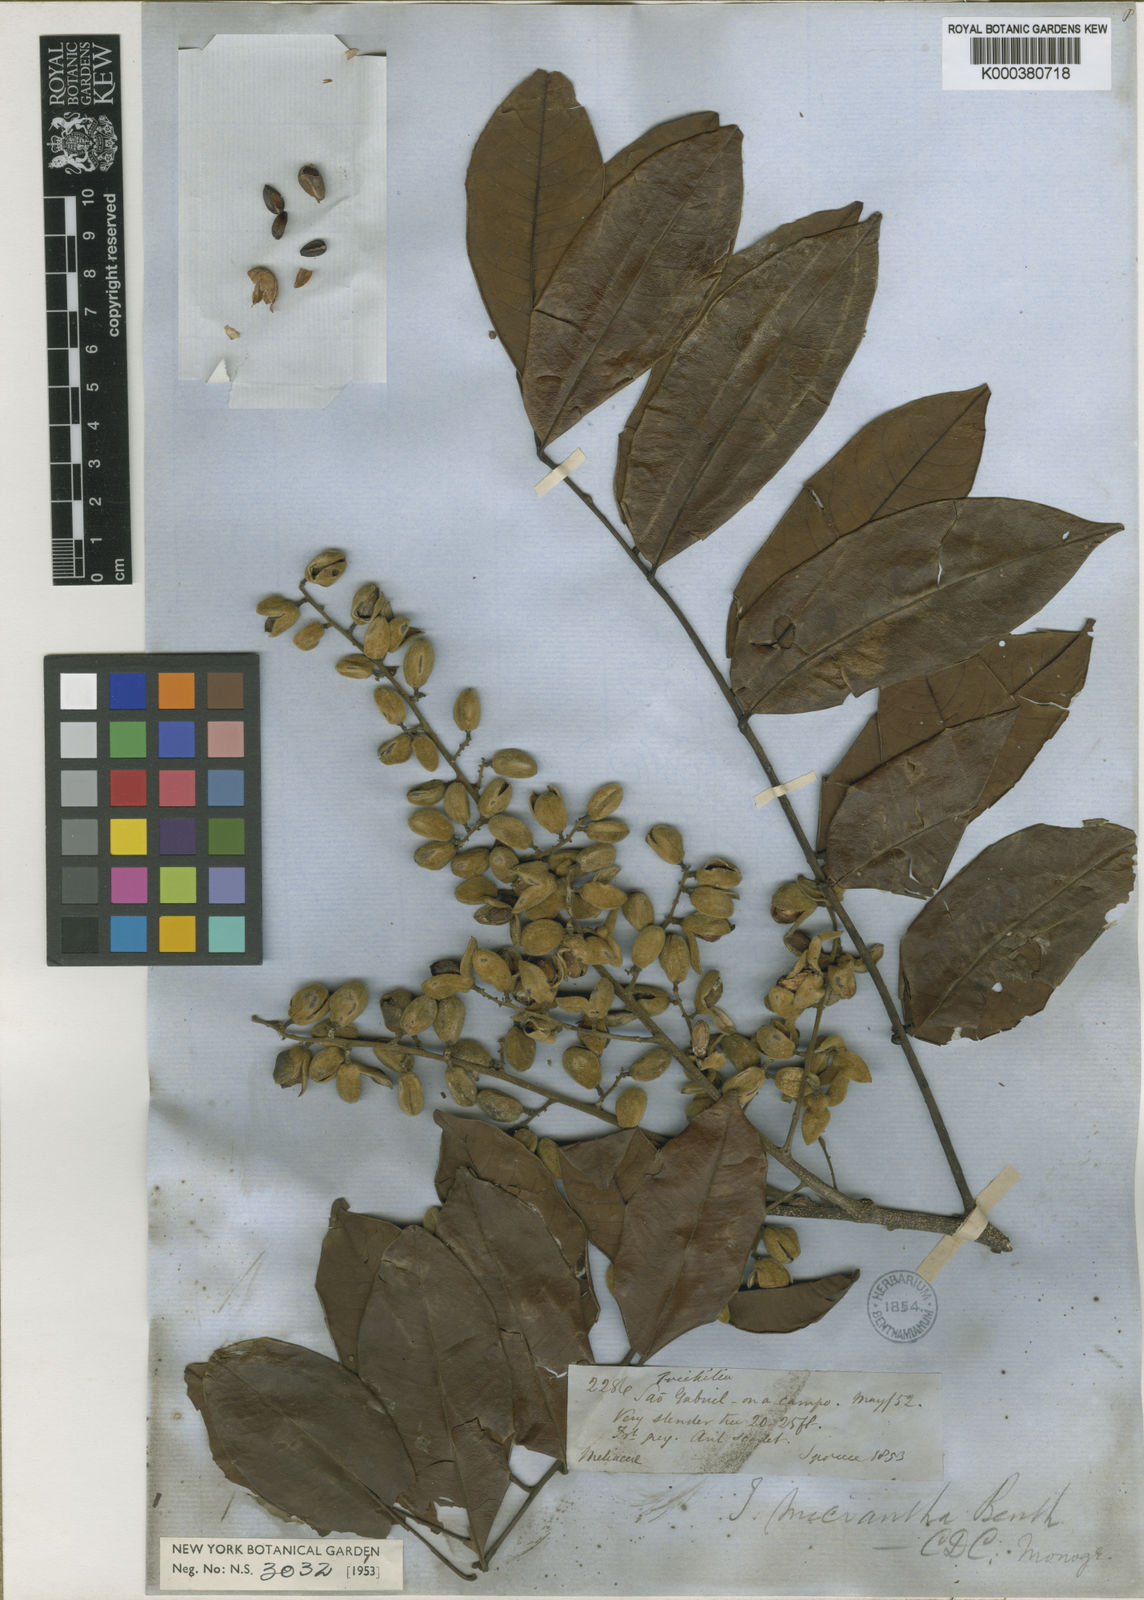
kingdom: Plantae
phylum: Tracheophyta
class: Magnoliopsida
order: Sapindales
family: Meliaceae
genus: Trichilia
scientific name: Trichilia micrantha
